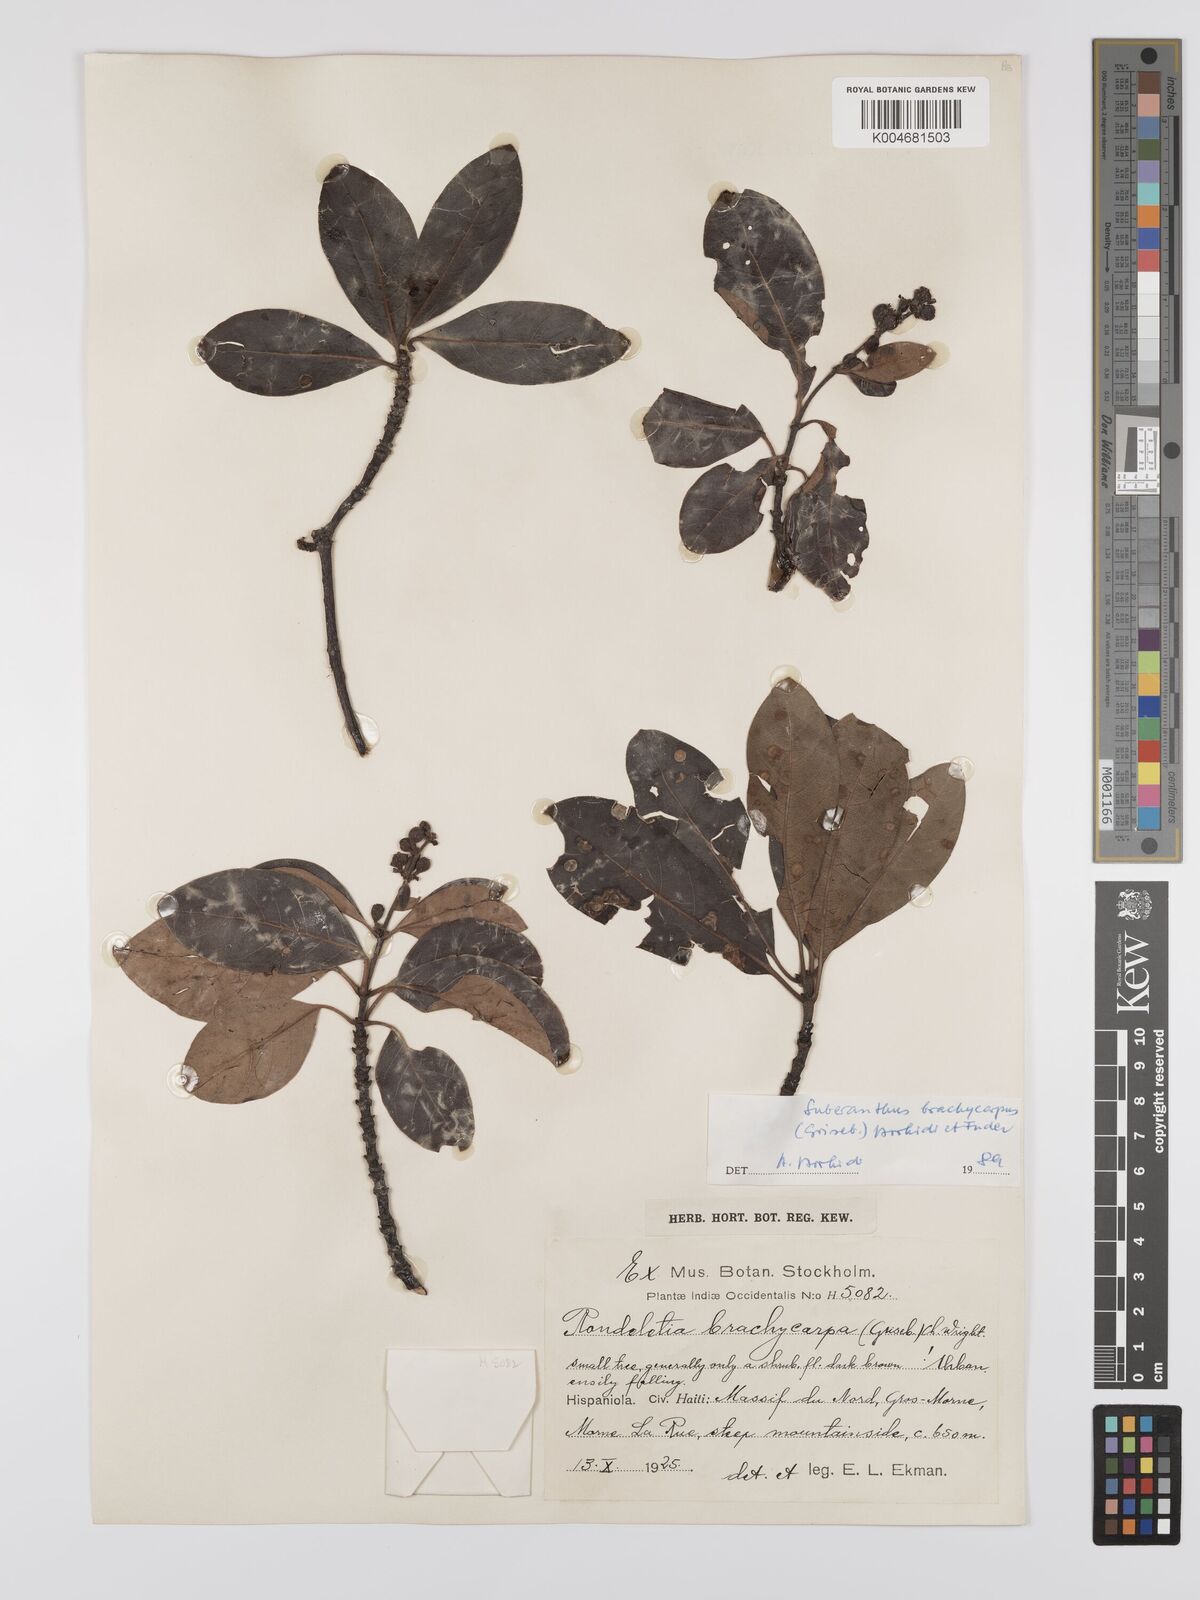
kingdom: Plantae
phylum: Tracheophyta
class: Magnoliopsida
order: Gentianales
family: Rubiaceae
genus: Suberanthus
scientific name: Suberanthus brachycarpus
